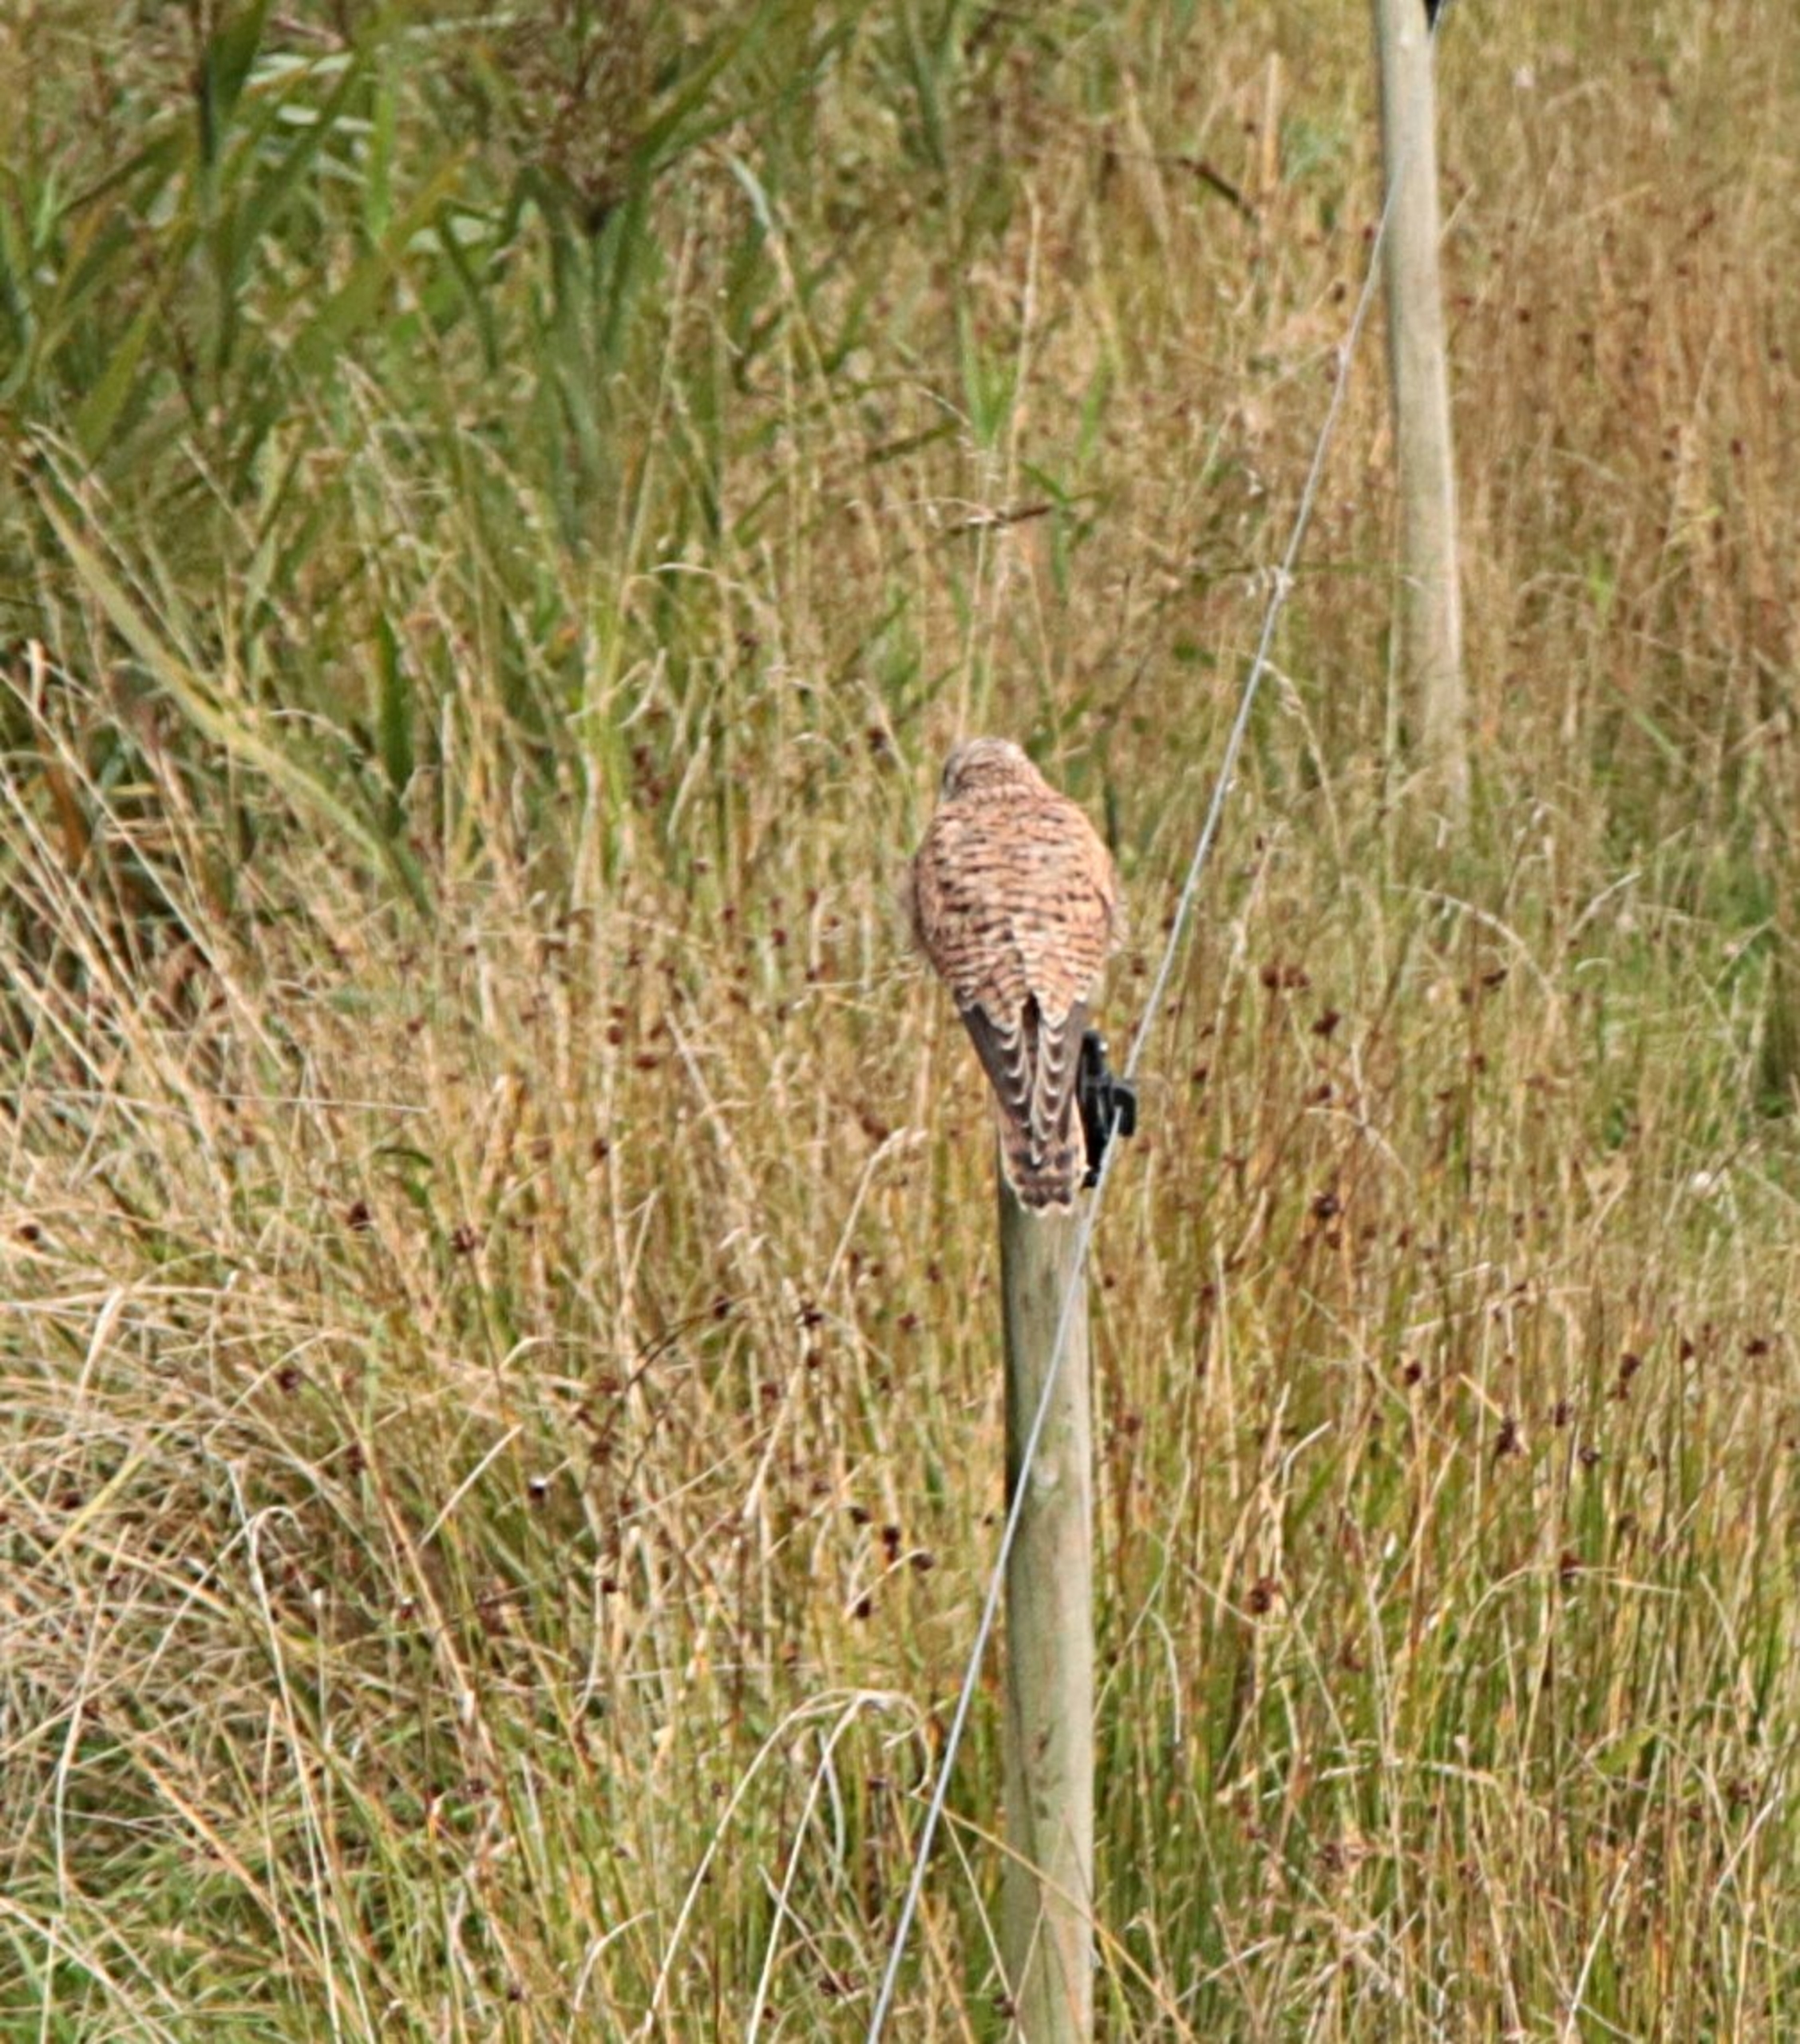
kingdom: Animalia
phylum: Chordata
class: Aves
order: Falconiformes
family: Falconidae
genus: Falco
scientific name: Falco tinnunculus
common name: Tårnfalk
